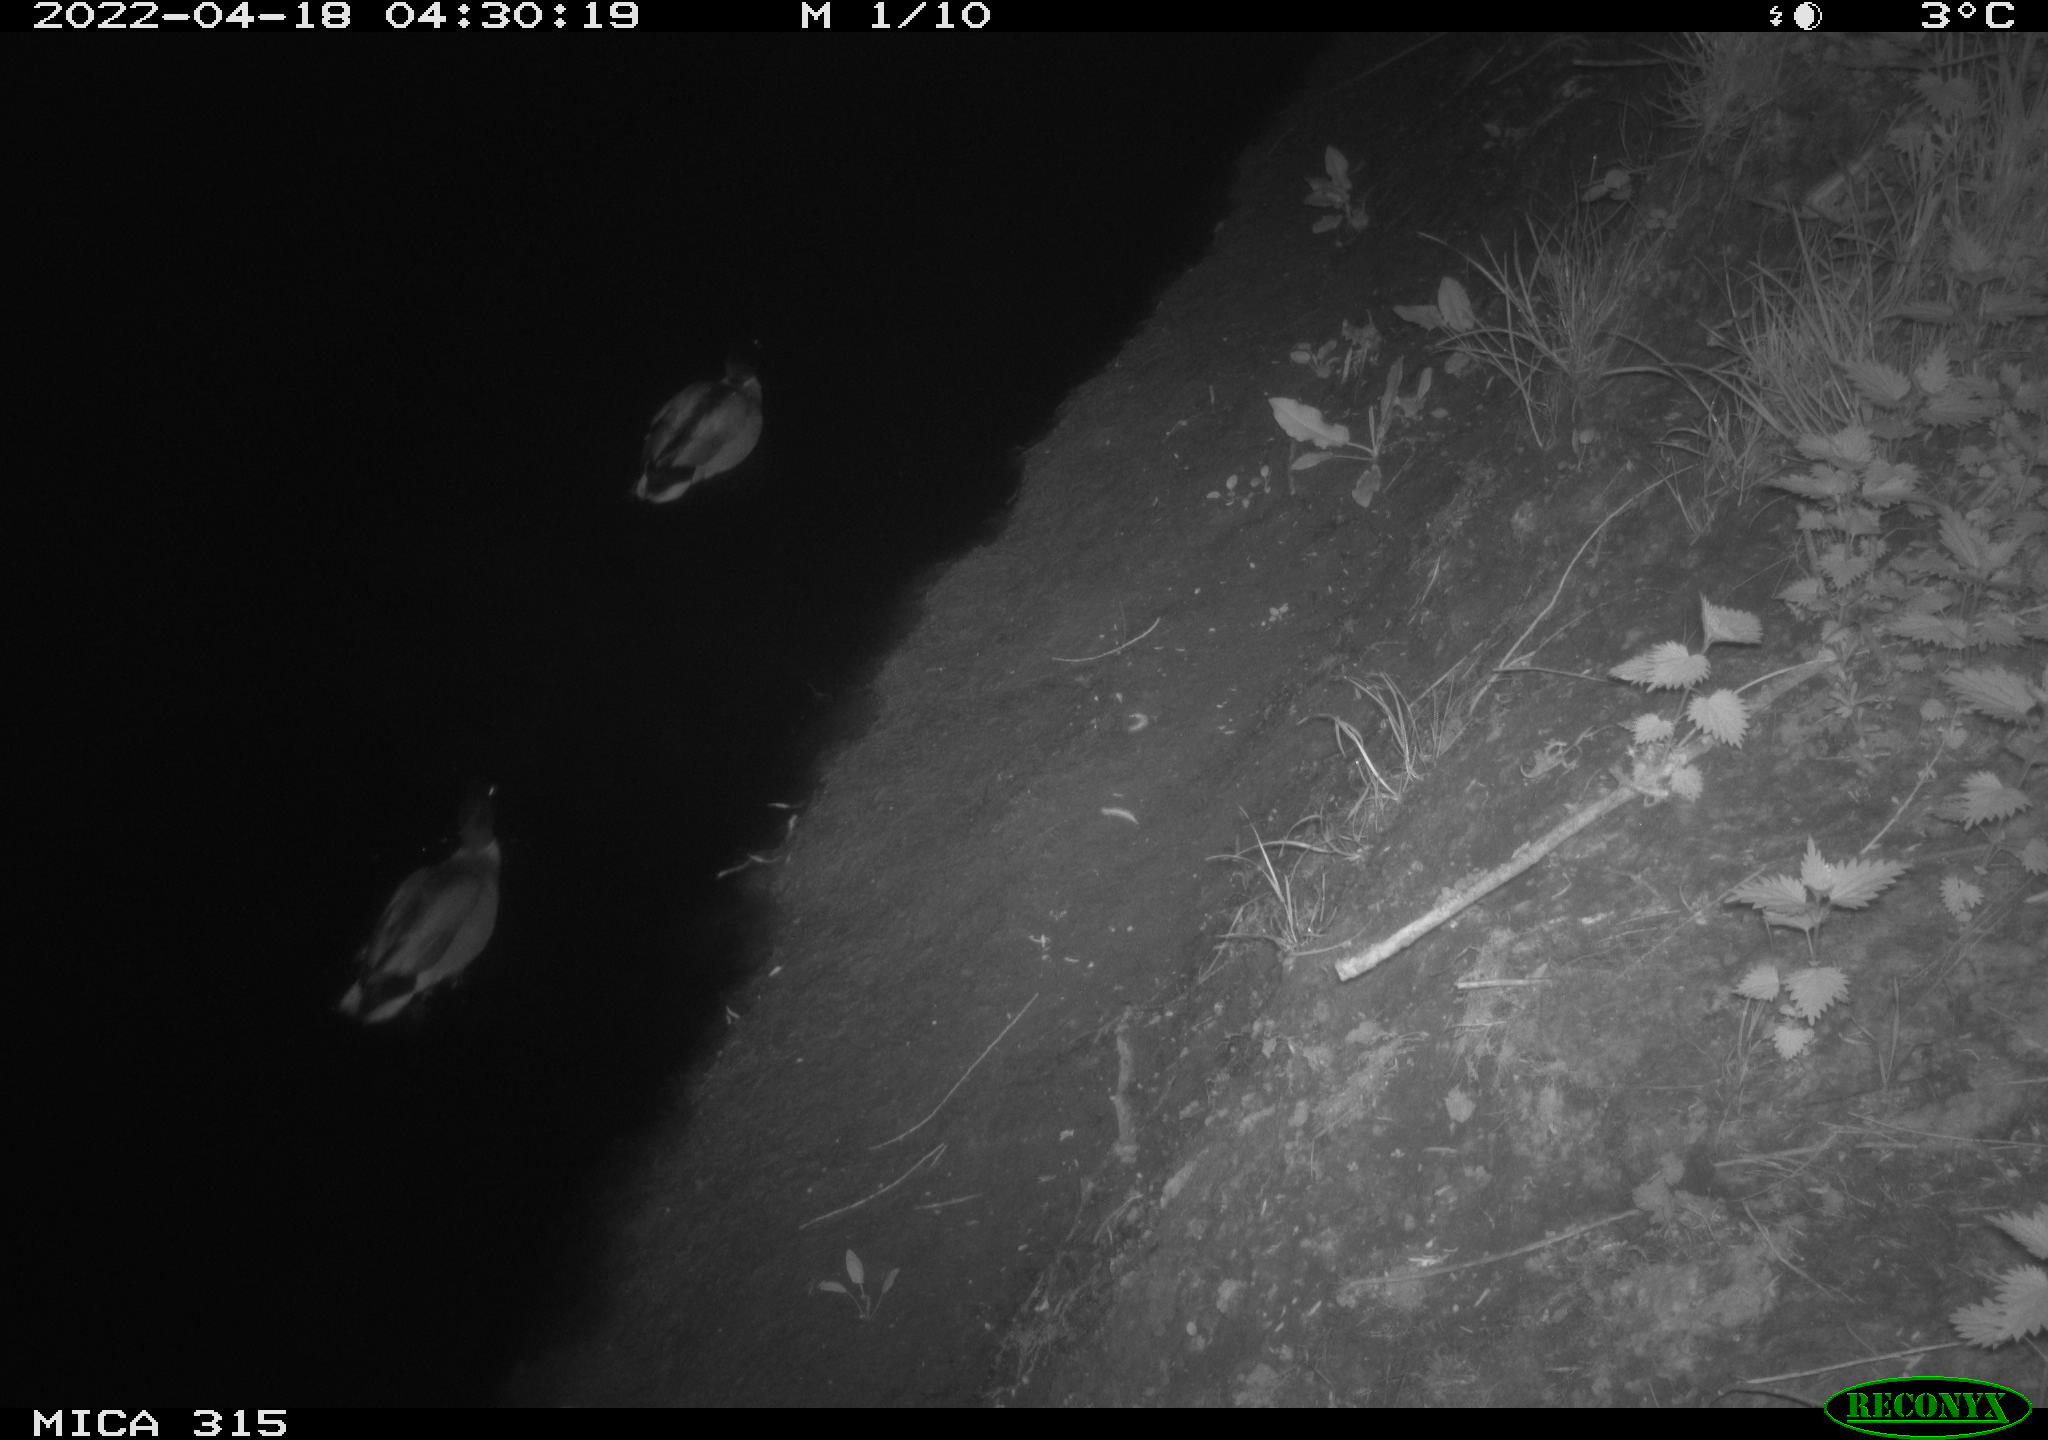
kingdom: Animalia
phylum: Chordata
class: Aves
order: Anseriformes
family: Anatidae
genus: Anas
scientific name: Anas platyrhynchos
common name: Mallard
